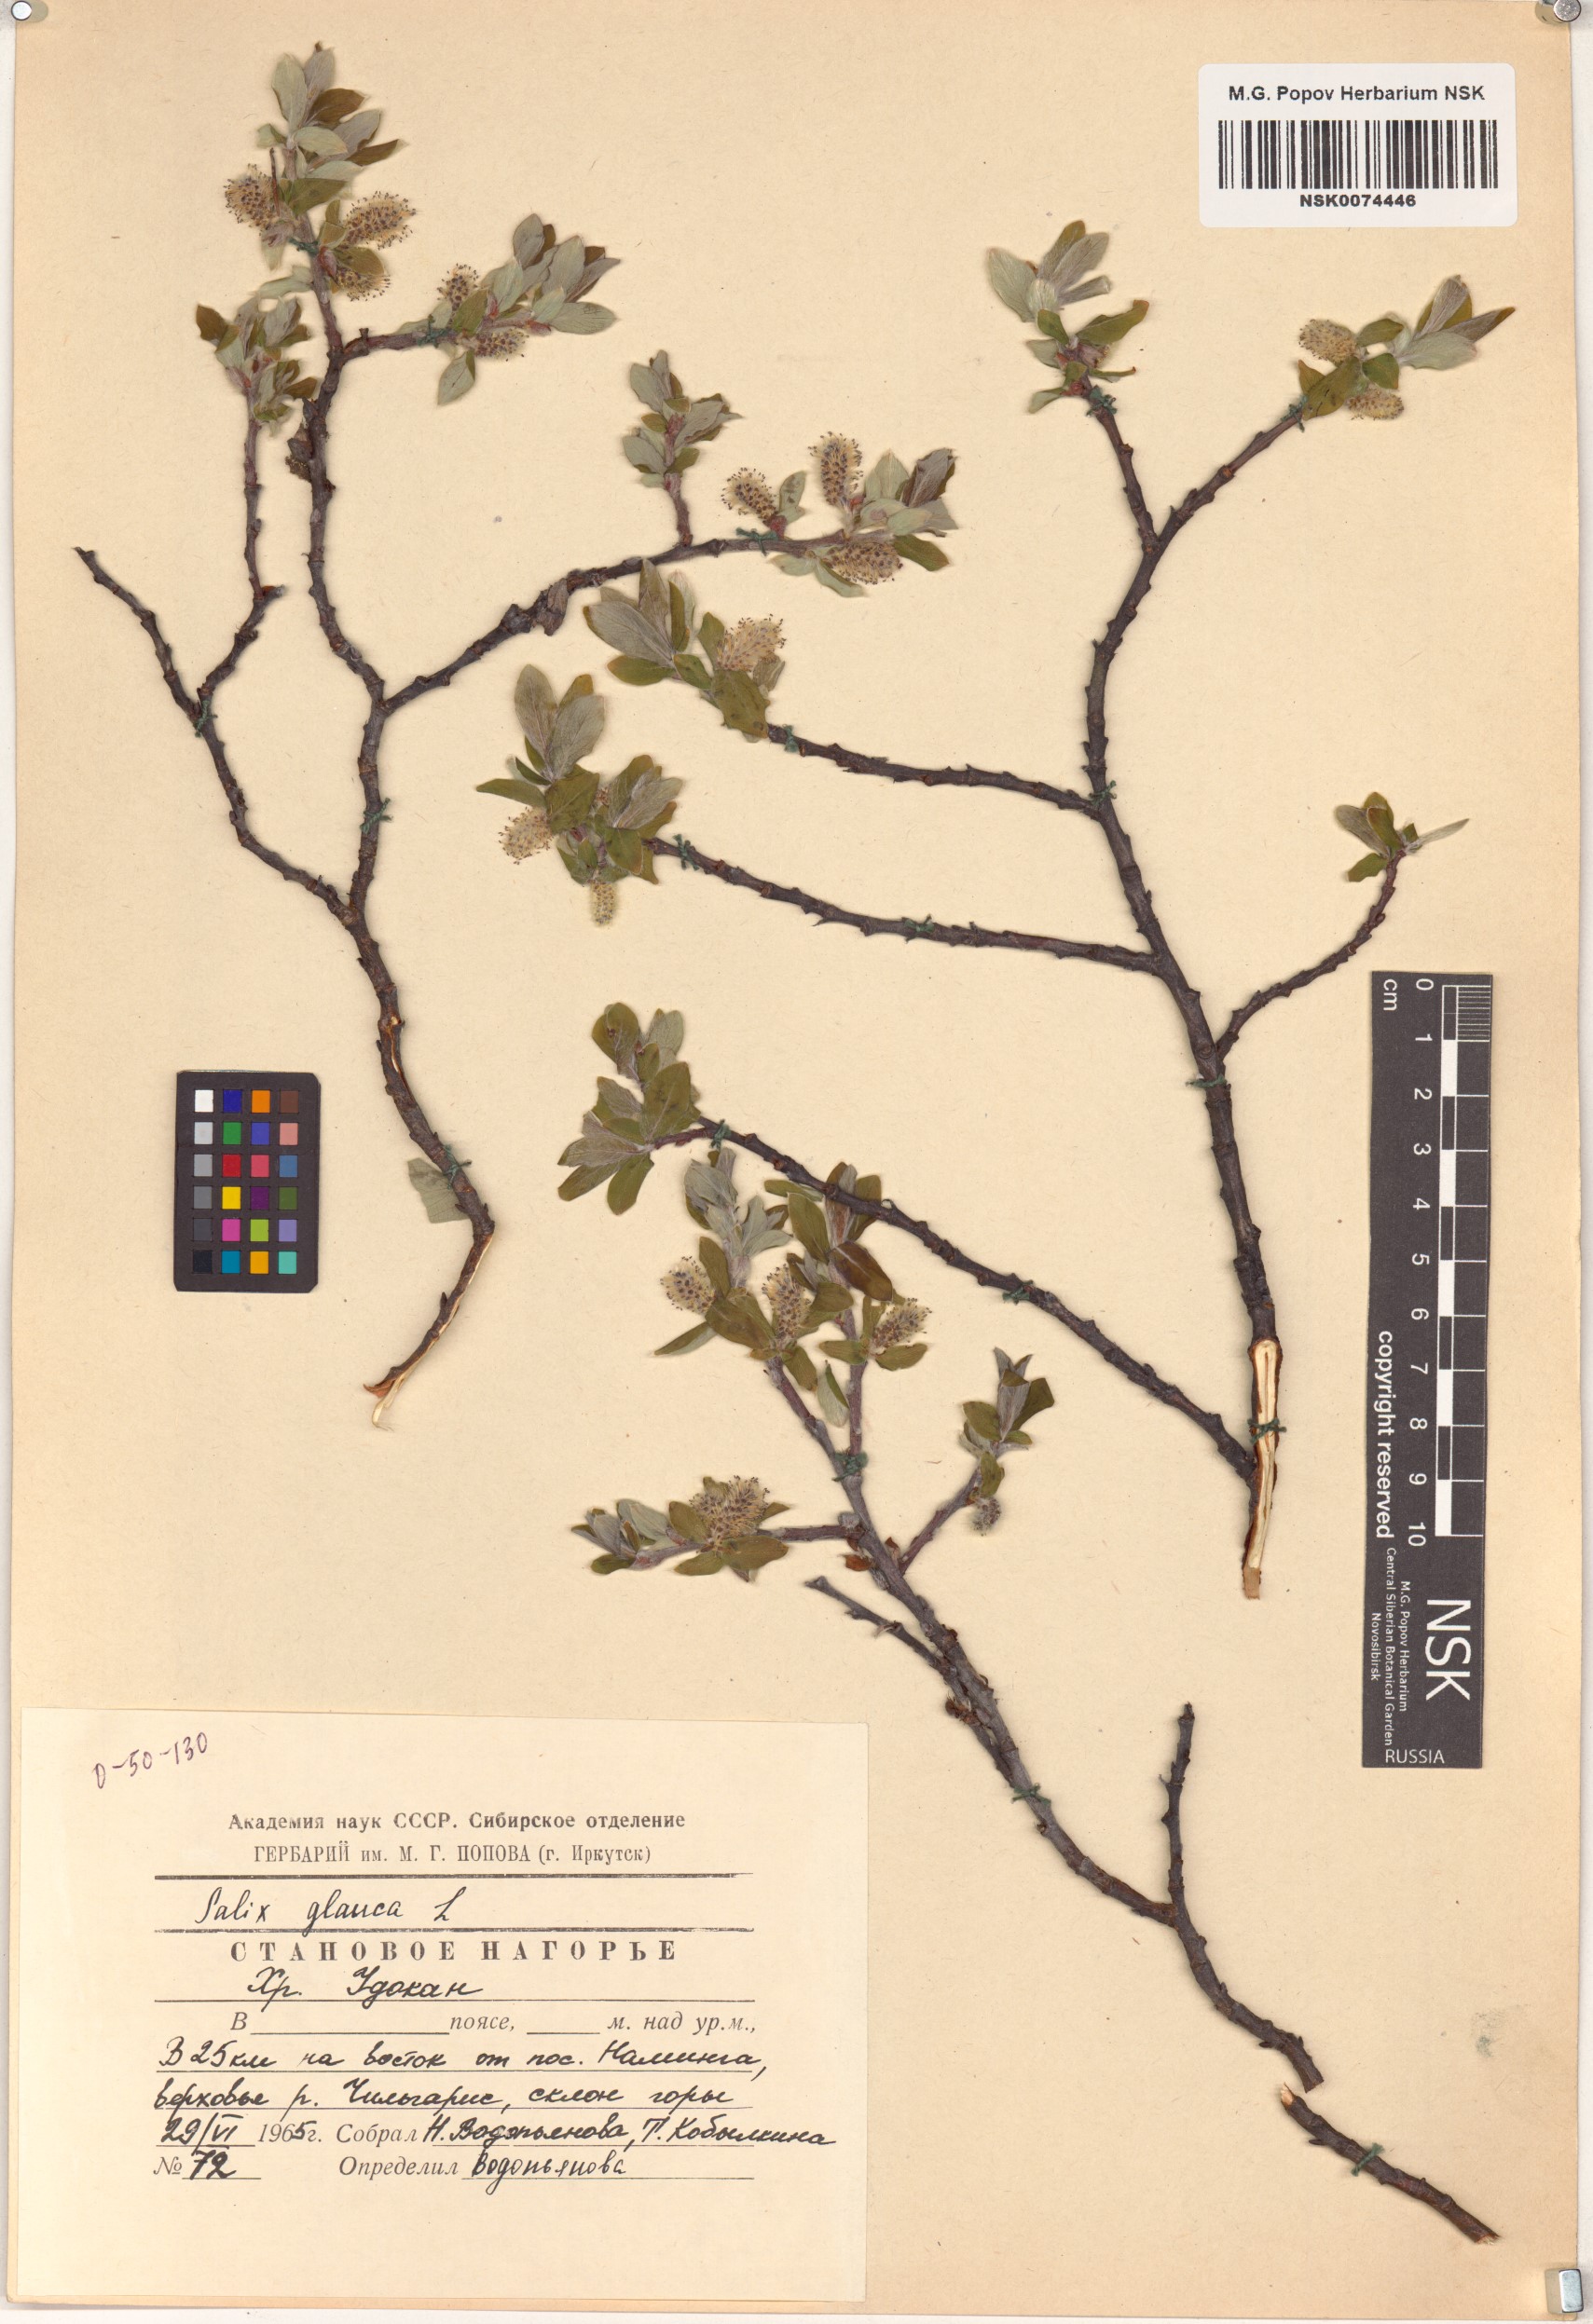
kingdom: Plantae
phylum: Tracheophyta
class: Magnoliopsida
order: Malpighiales
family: Salicaceae
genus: Salix
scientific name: Salix glauca
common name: Glaucous willow
